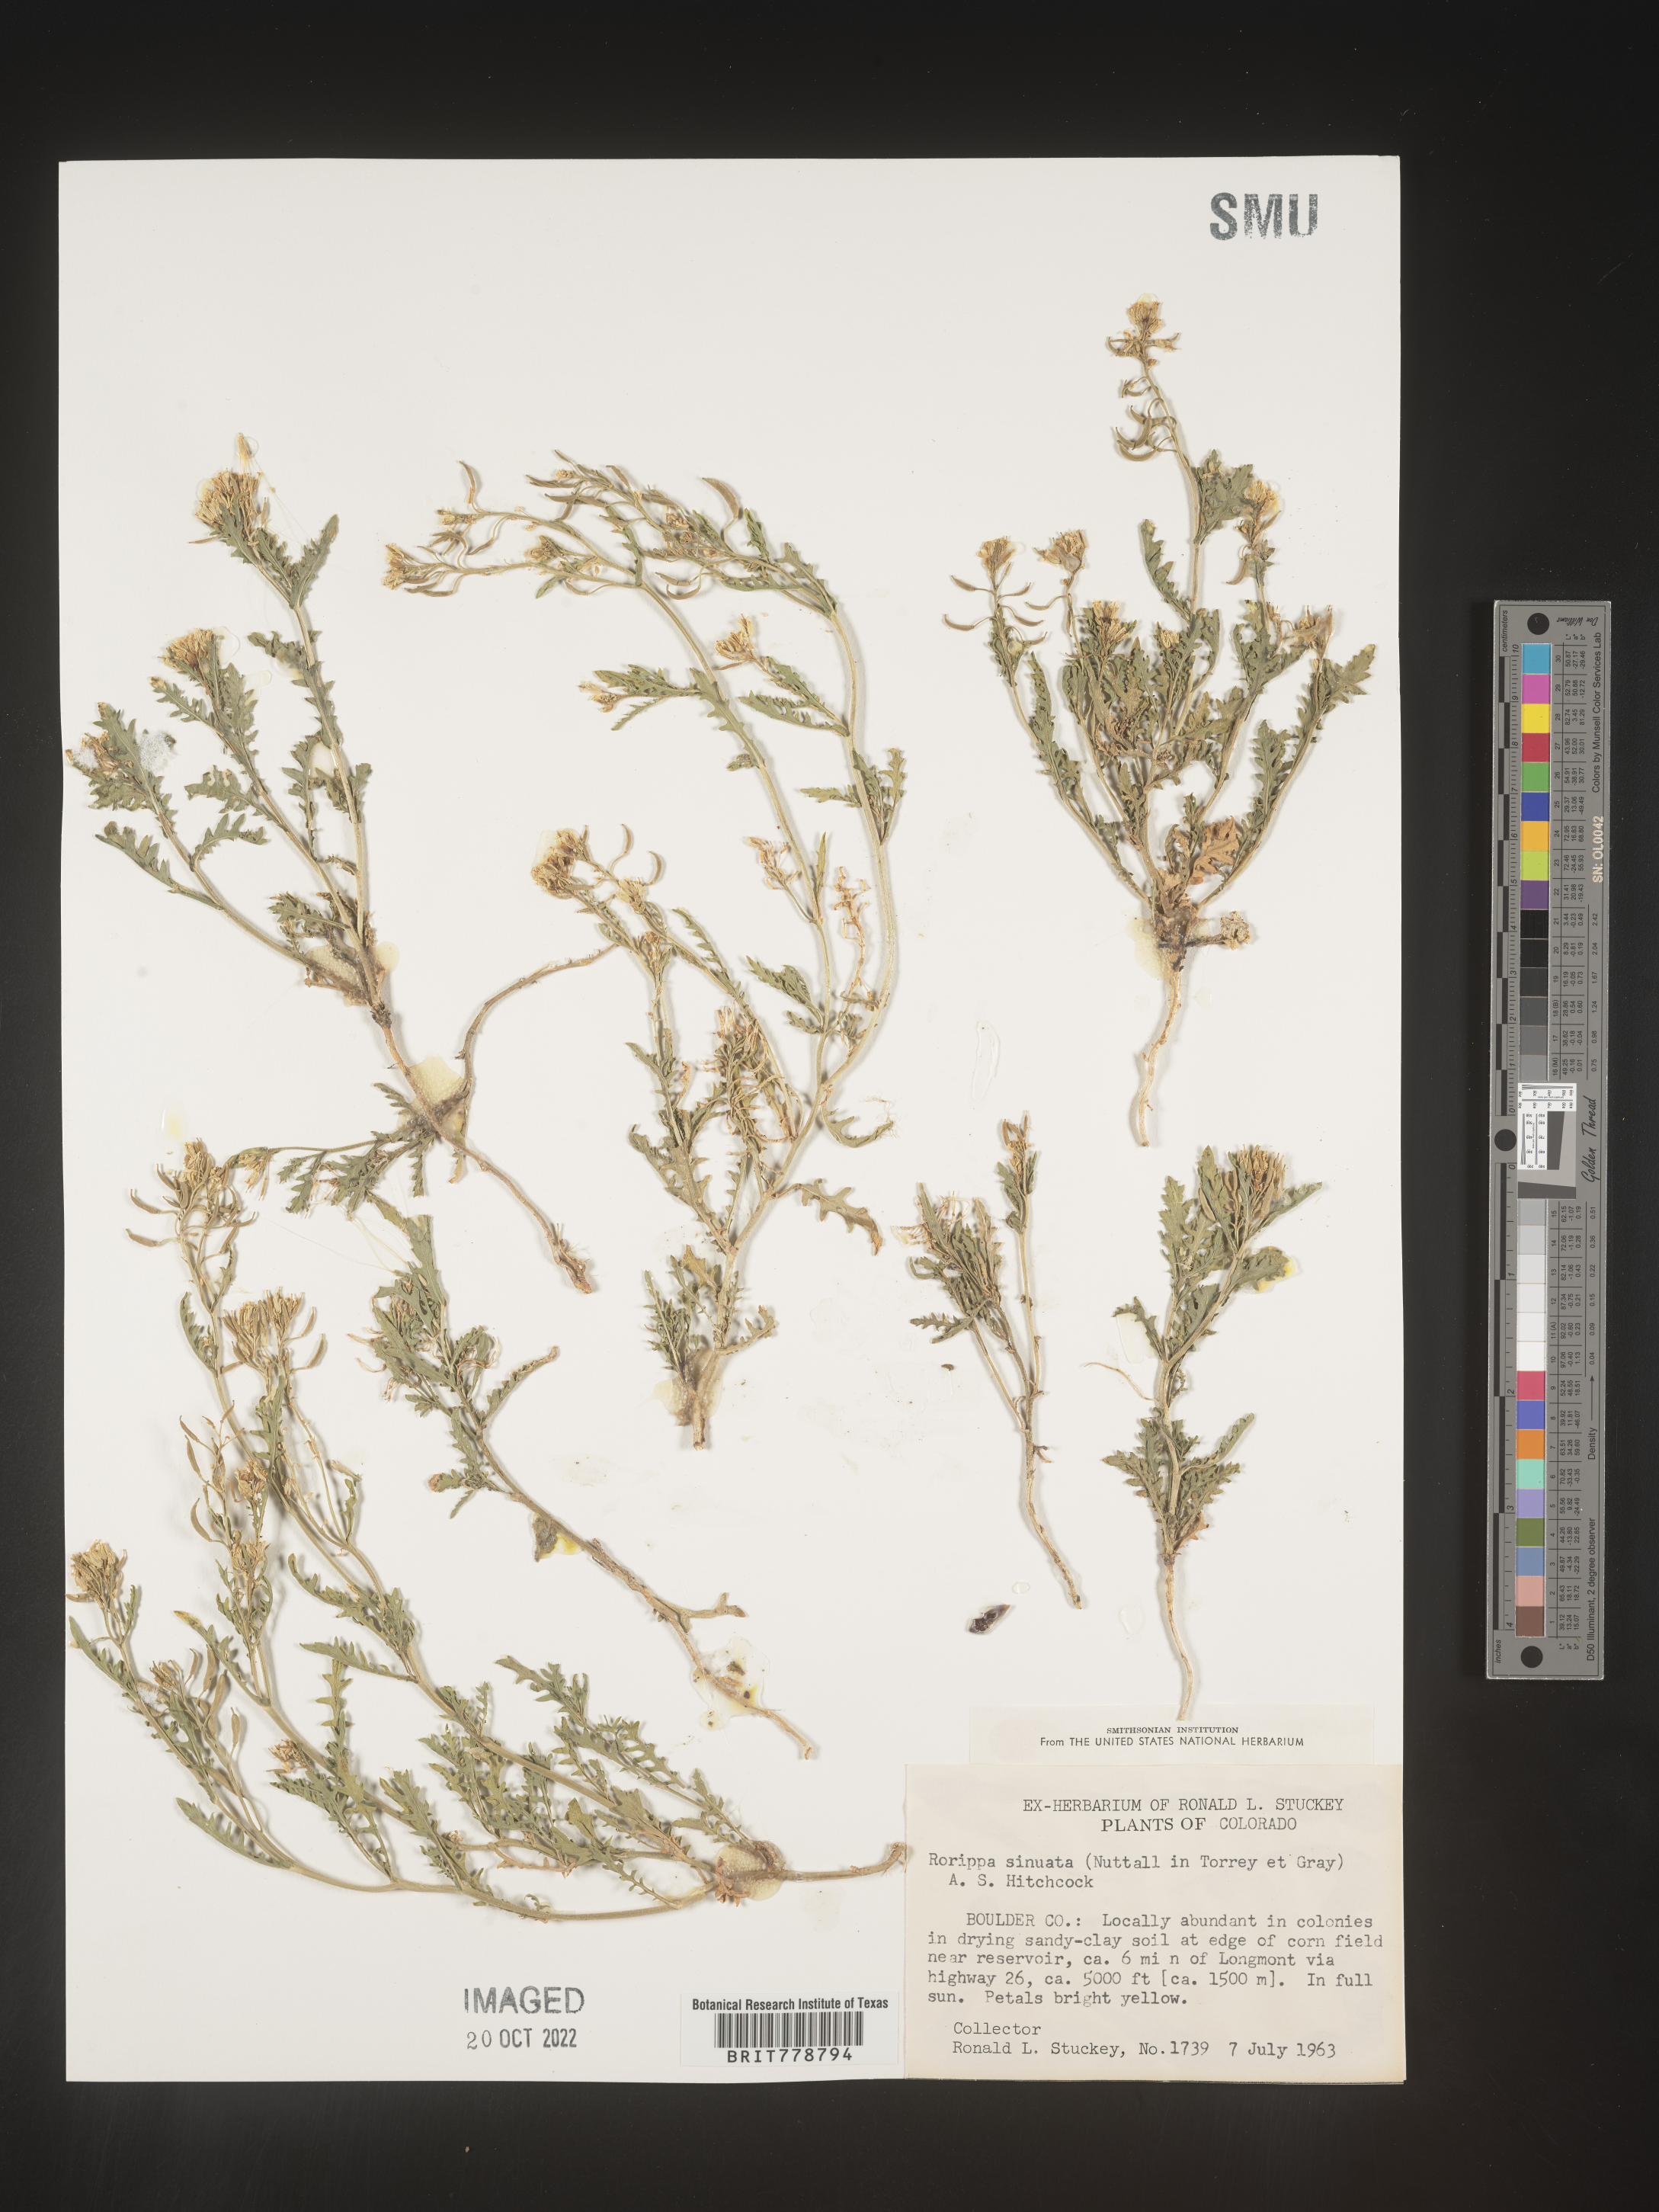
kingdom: Plantae
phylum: Tracheophyta
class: Magnoliopsida
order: Brassicales
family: Brassicaceae
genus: Rorippa
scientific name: Rorippa sinuata
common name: Spread yellow cress
